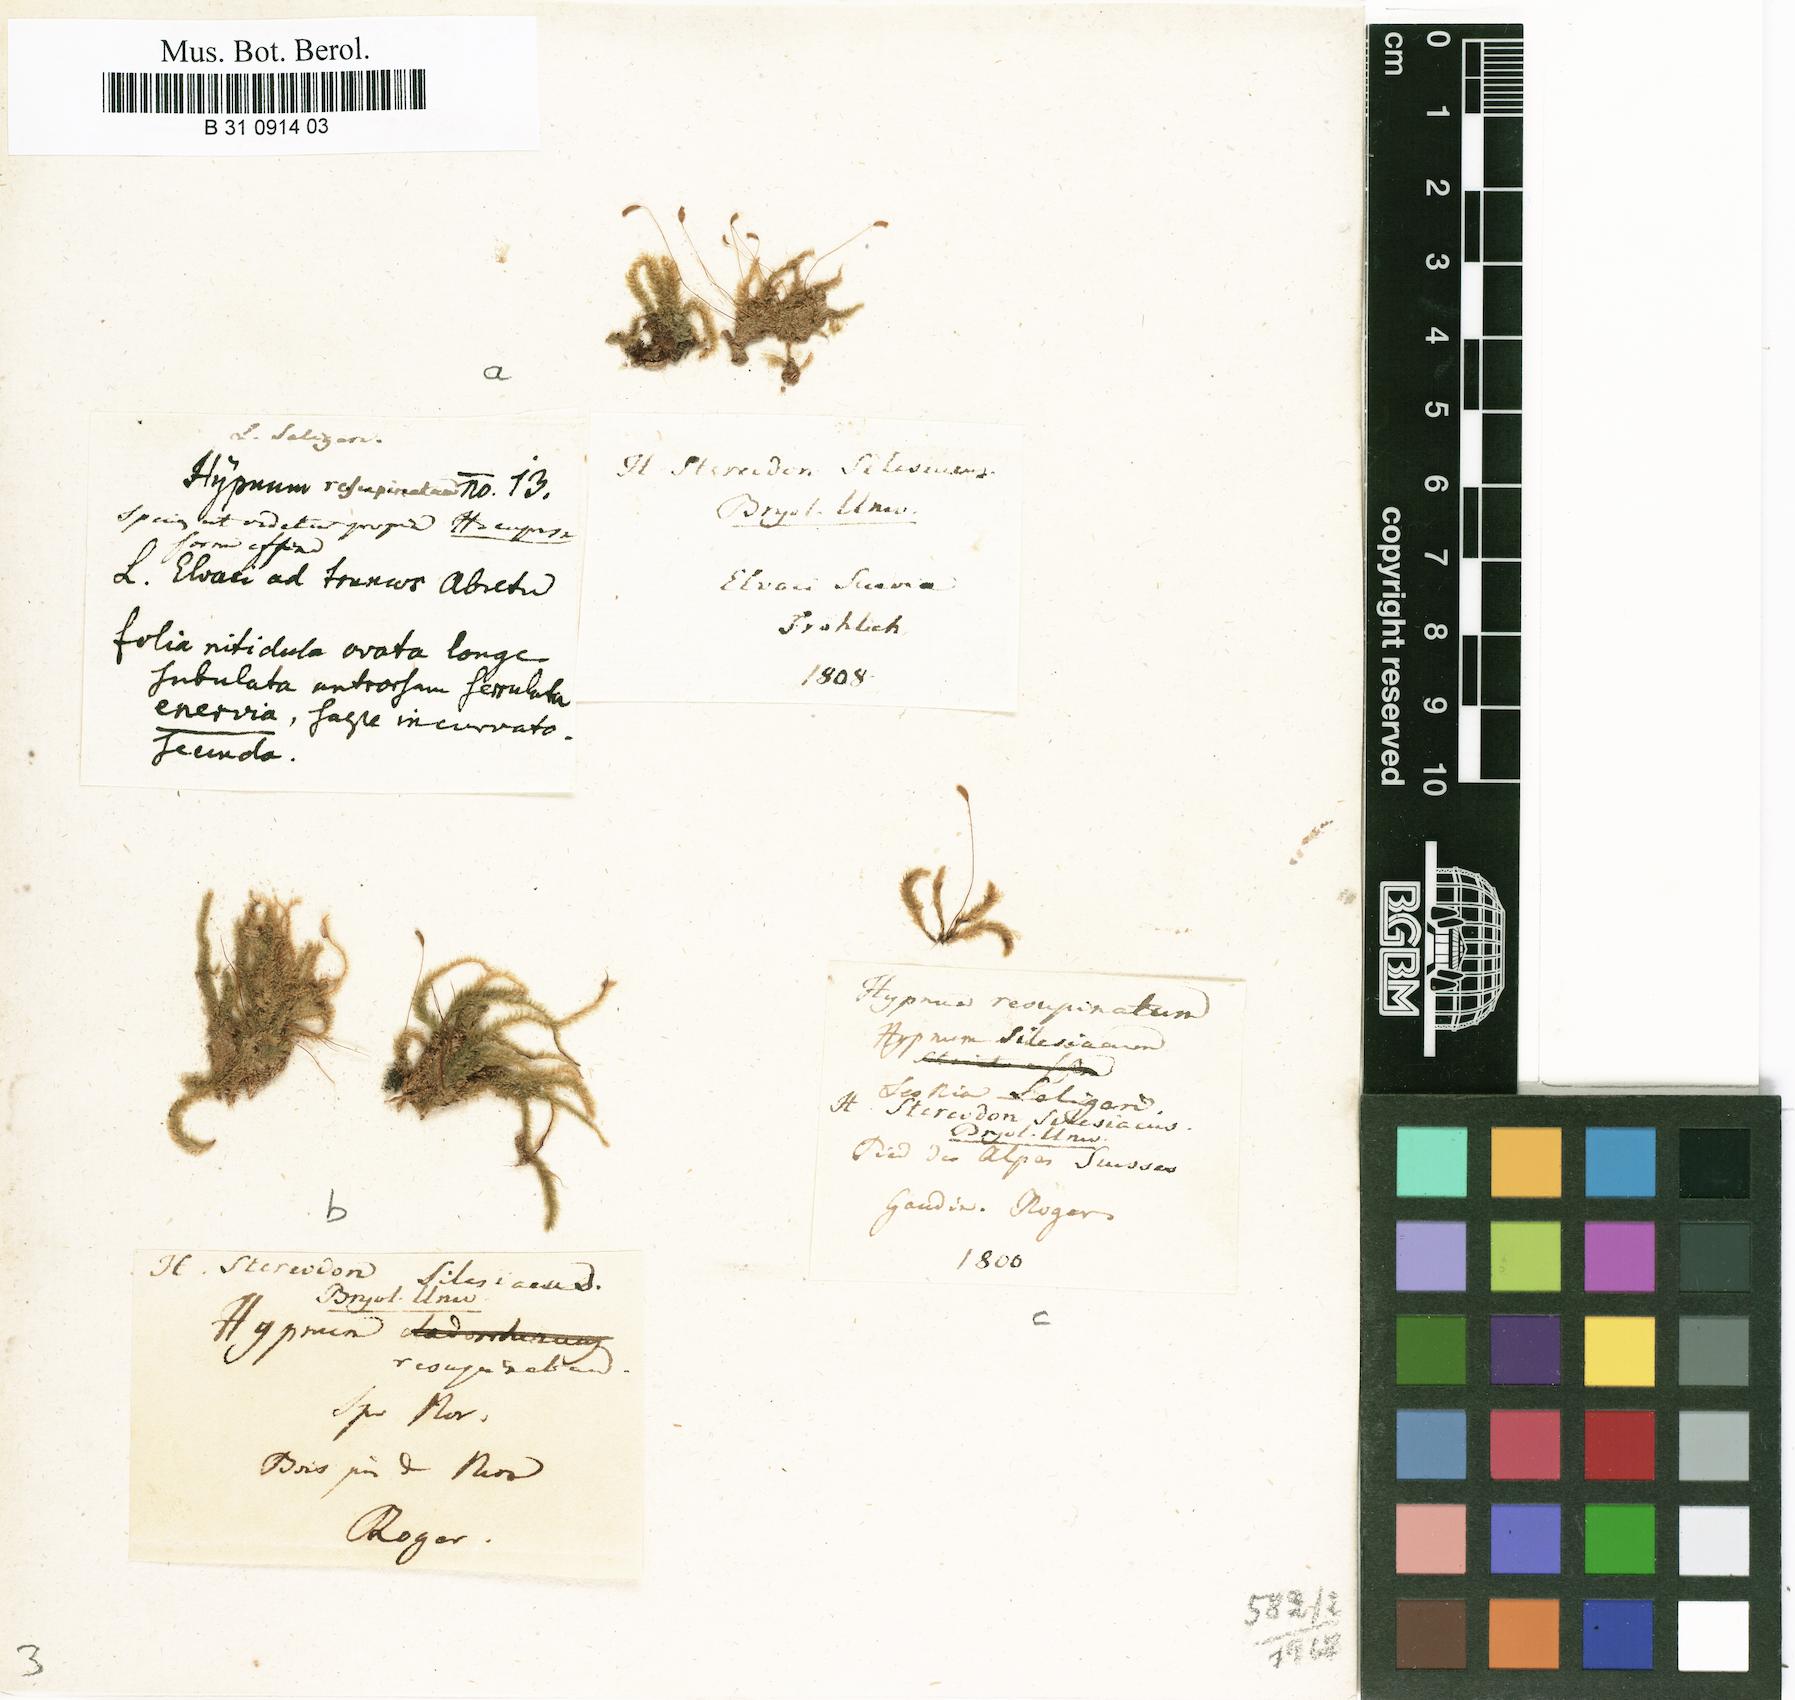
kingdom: Plantae
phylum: Bryophyta
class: Bryopsida
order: Hypnales
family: Plagiotheciaceae
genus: Herzogiella
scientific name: Herzogiella seligeri
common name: Silesian feather-moss
